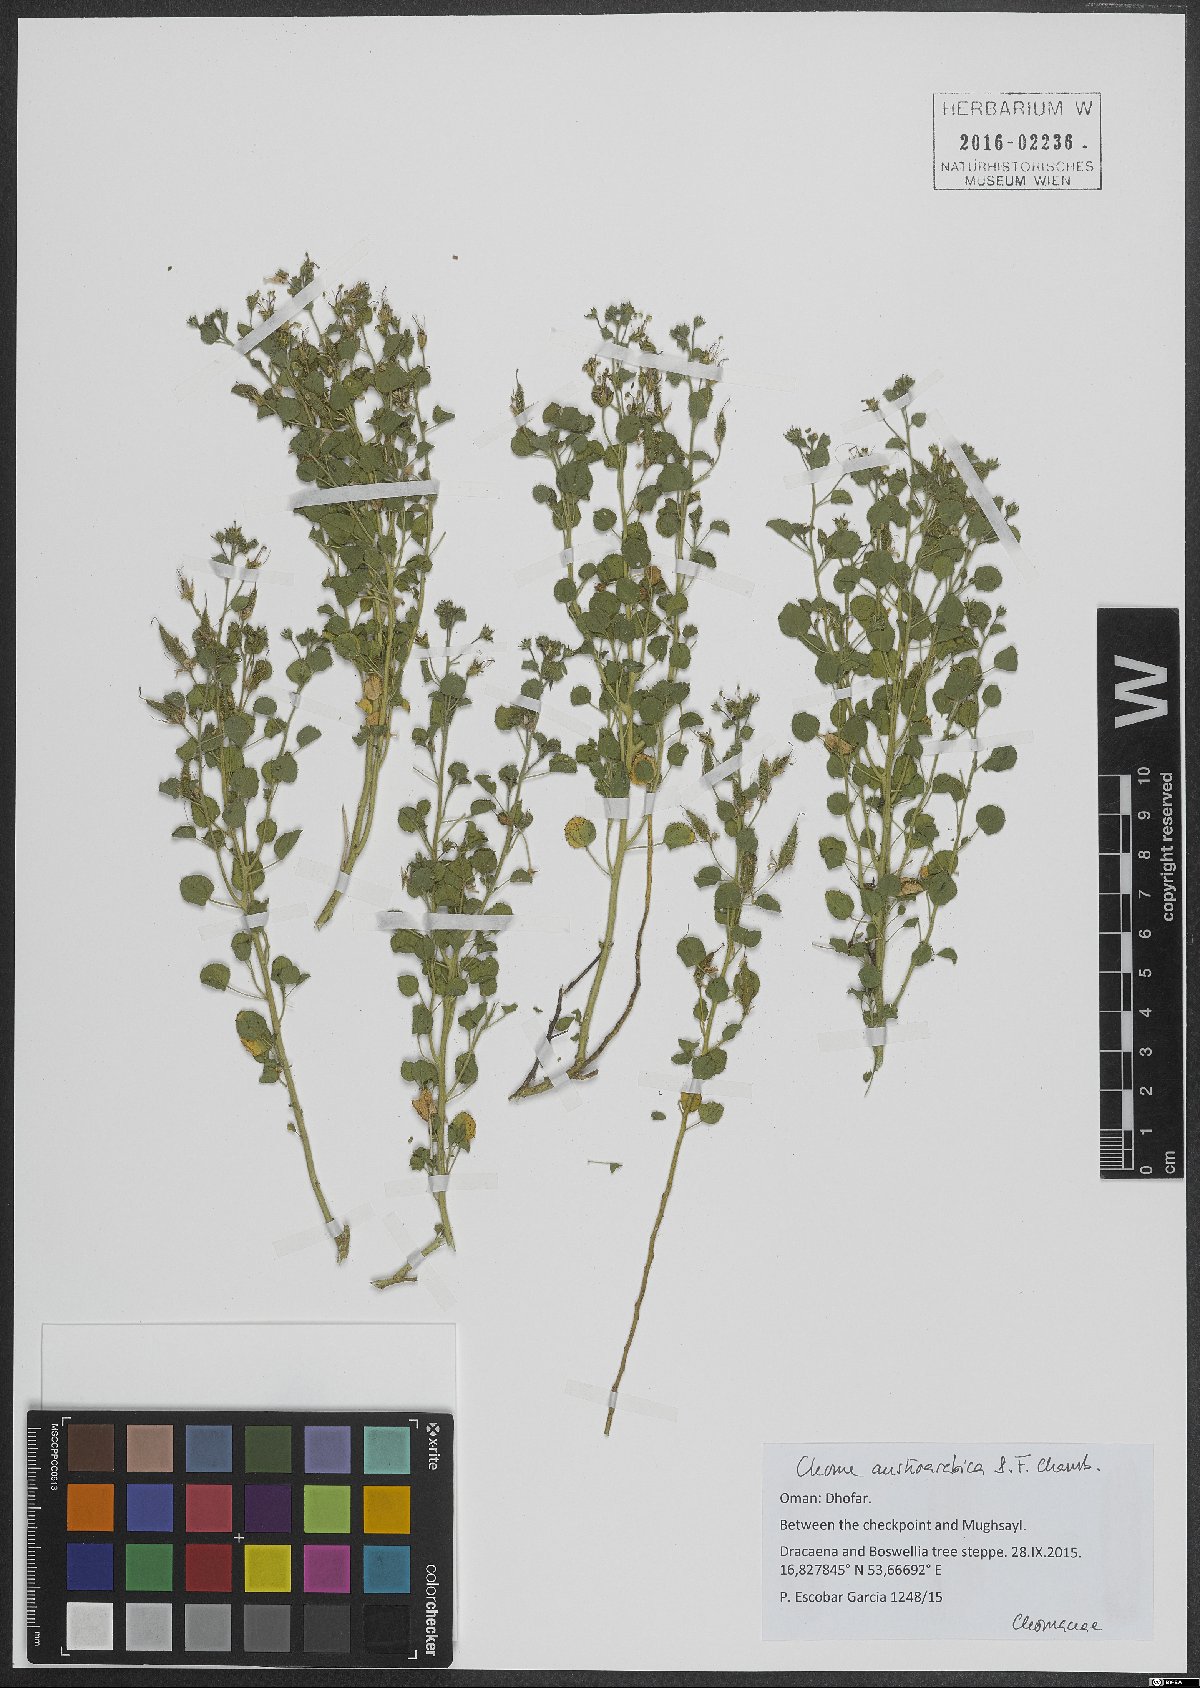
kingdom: Plantae
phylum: Tracheophyta
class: Magnoliopsida
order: Brassicales
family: Cleomaceae
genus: Rorida
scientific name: Rorida droserifolia
